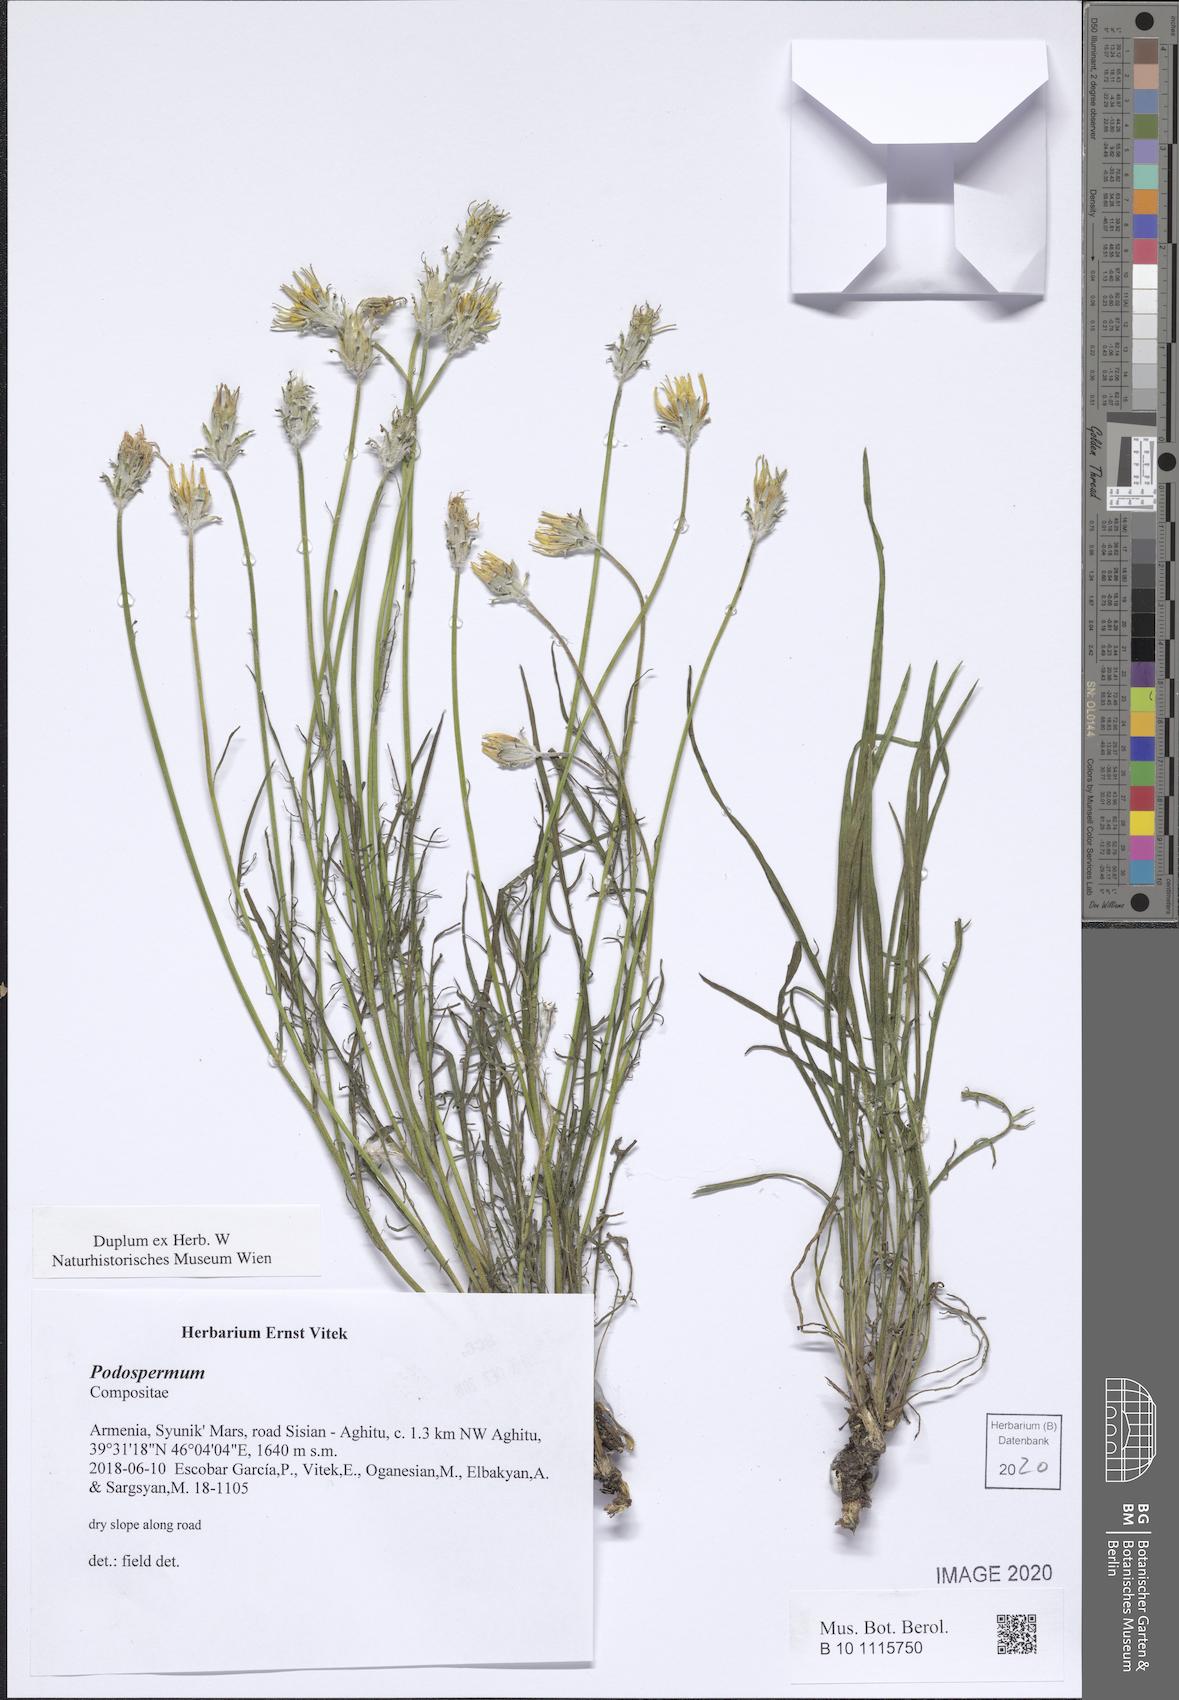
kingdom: Plantae
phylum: Tracheophyta
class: Magnoliopsida
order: Asterales
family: Asteraceae
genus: Scorzonera
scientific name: Scorzonera
